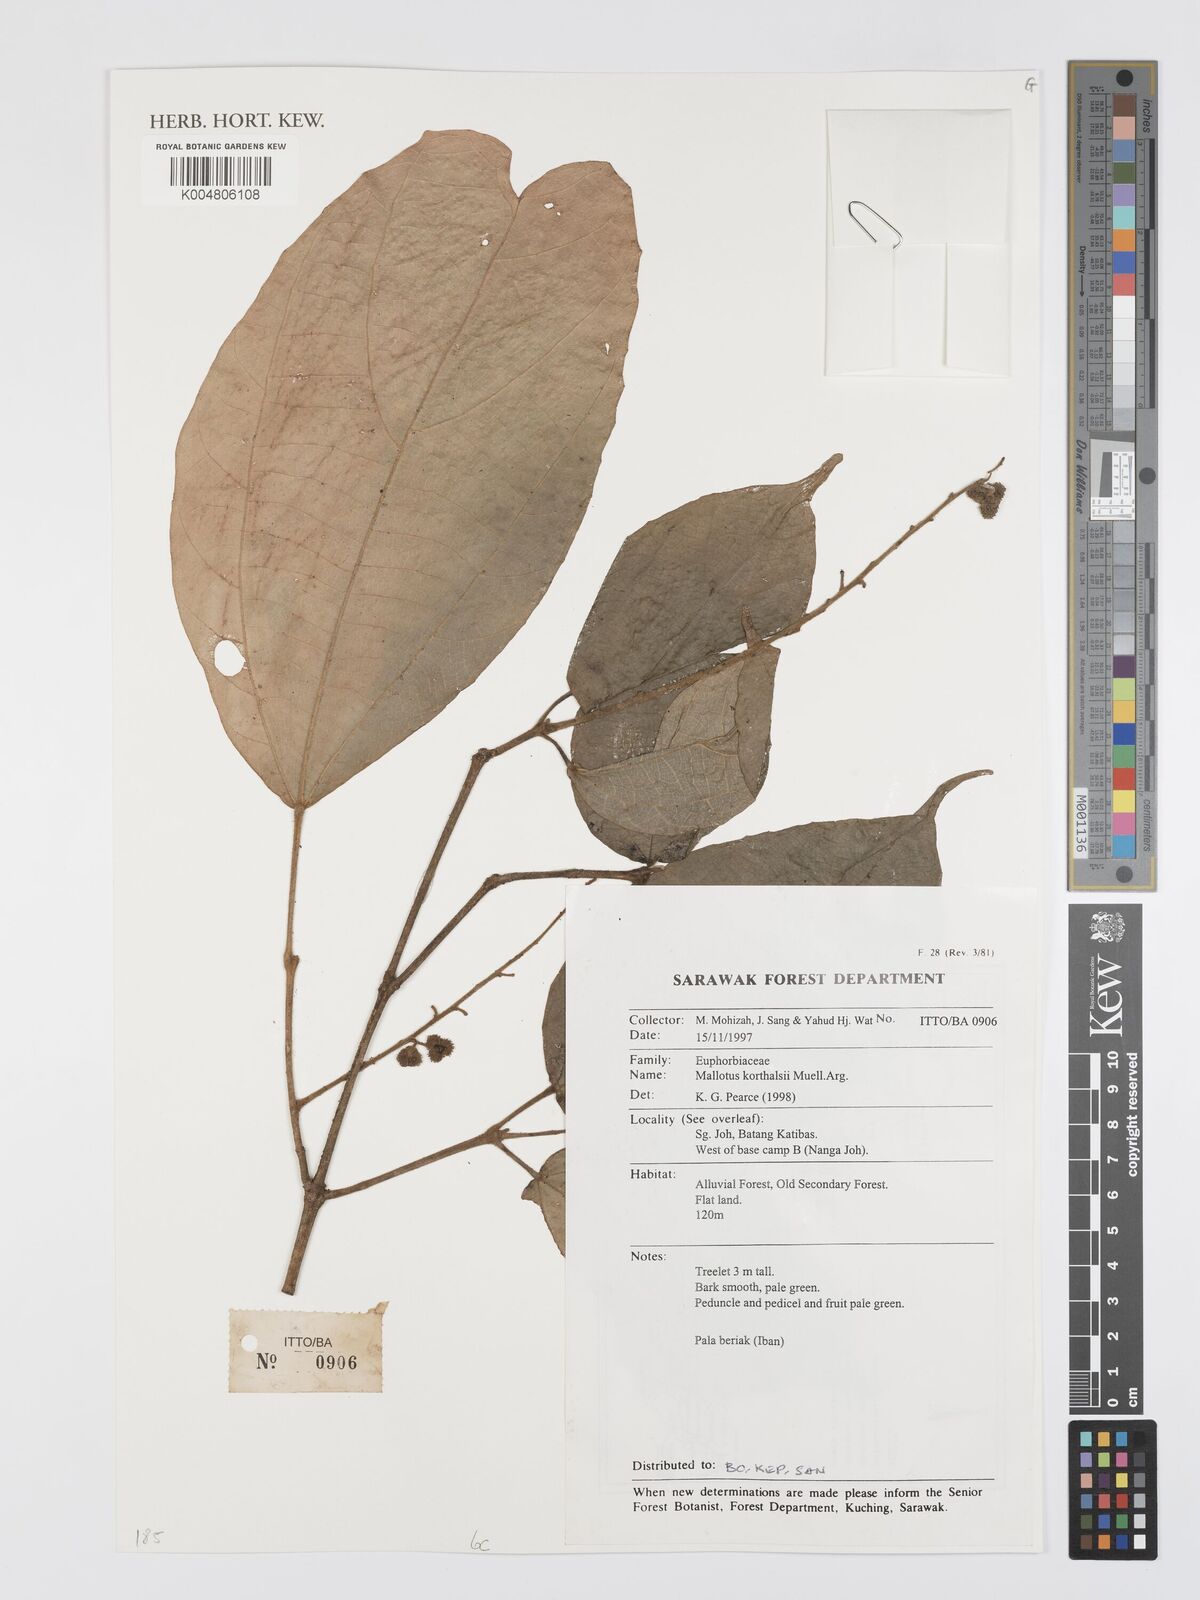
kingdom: Plantae
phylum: Tracheophyta
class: Magnoliopsida
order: Malpighiales
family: Euphorbiaceae
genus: Mallotus
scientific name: Mallotus korthalsii
